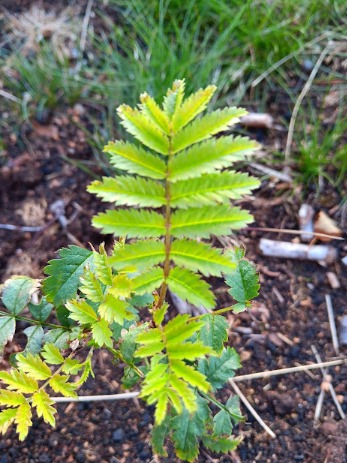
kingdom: Plantae
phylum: Tracheophyta
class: Magnoliopsida
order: Rosales
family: Rosaceae
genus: Sorbus
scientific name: Sorbus aucuparia
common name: Almindelig røn
